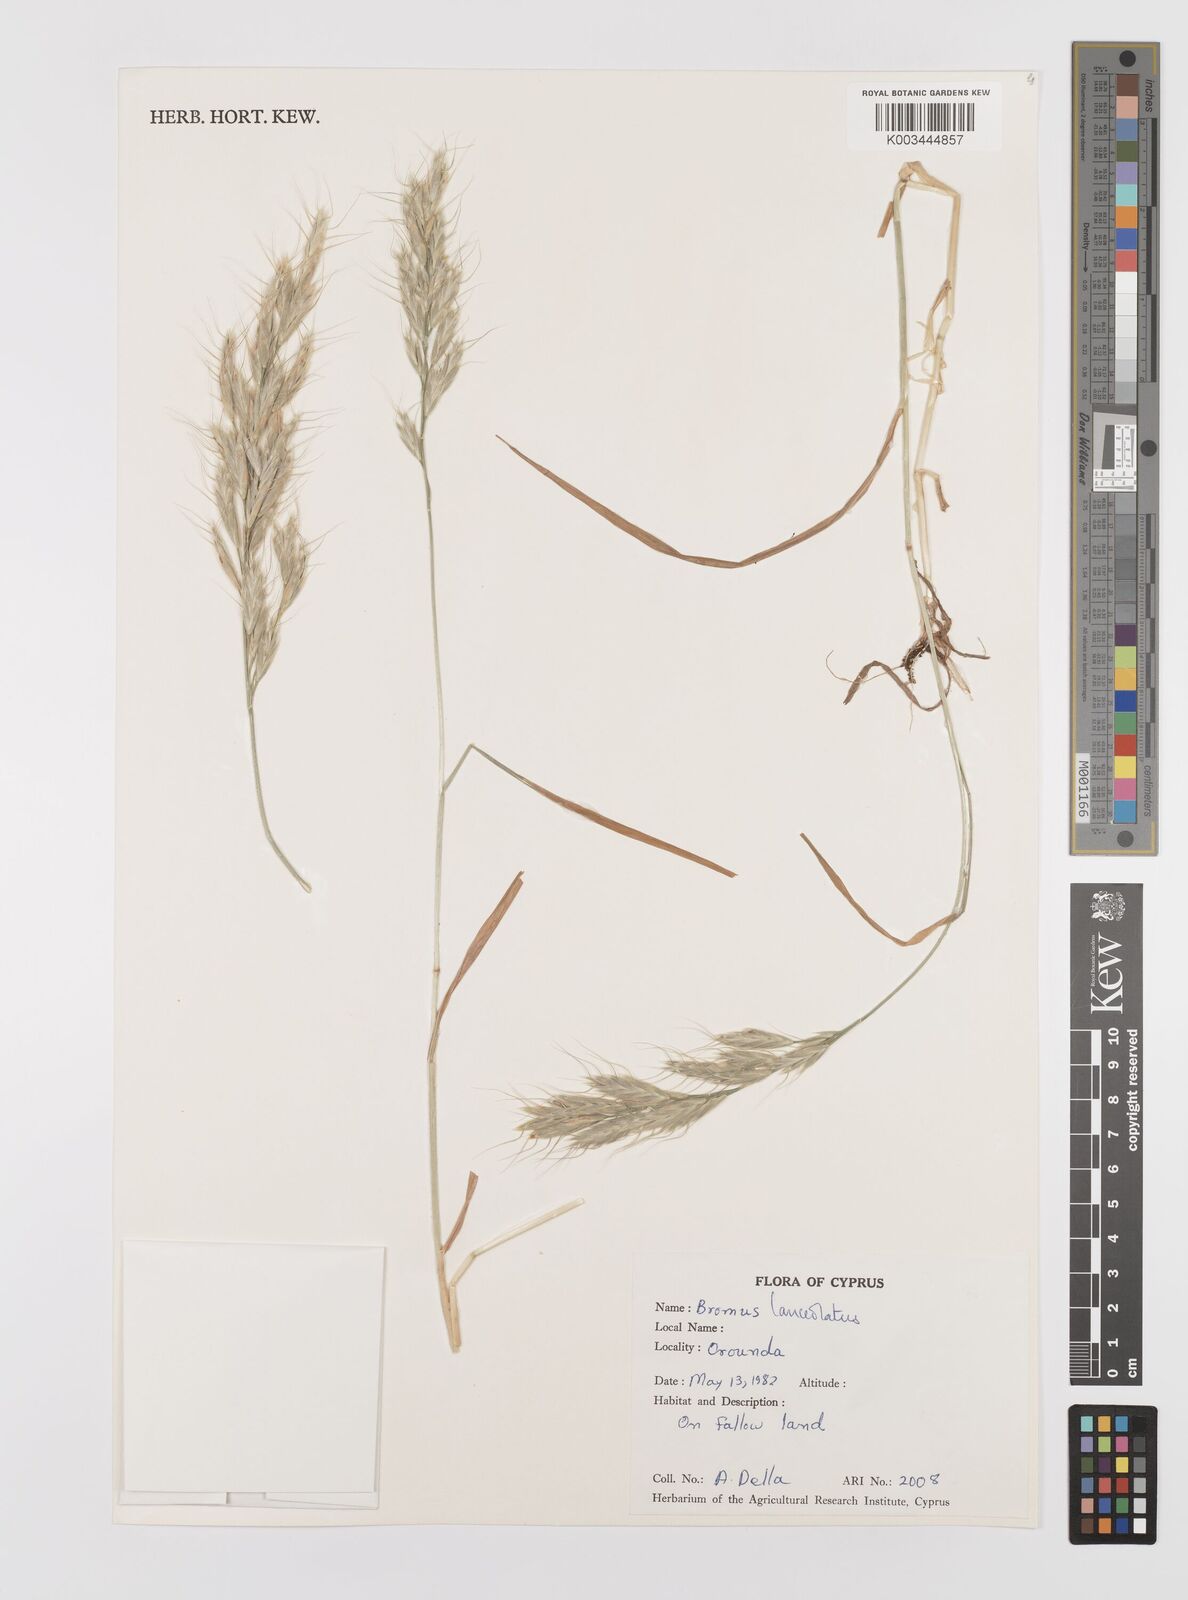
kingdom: Plantae
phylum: Tracheophyta
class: Liliopsida
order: Poales
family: Poaceae
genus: Bromus
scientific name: Bromus lanceolatus
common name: Mediterranean brome
